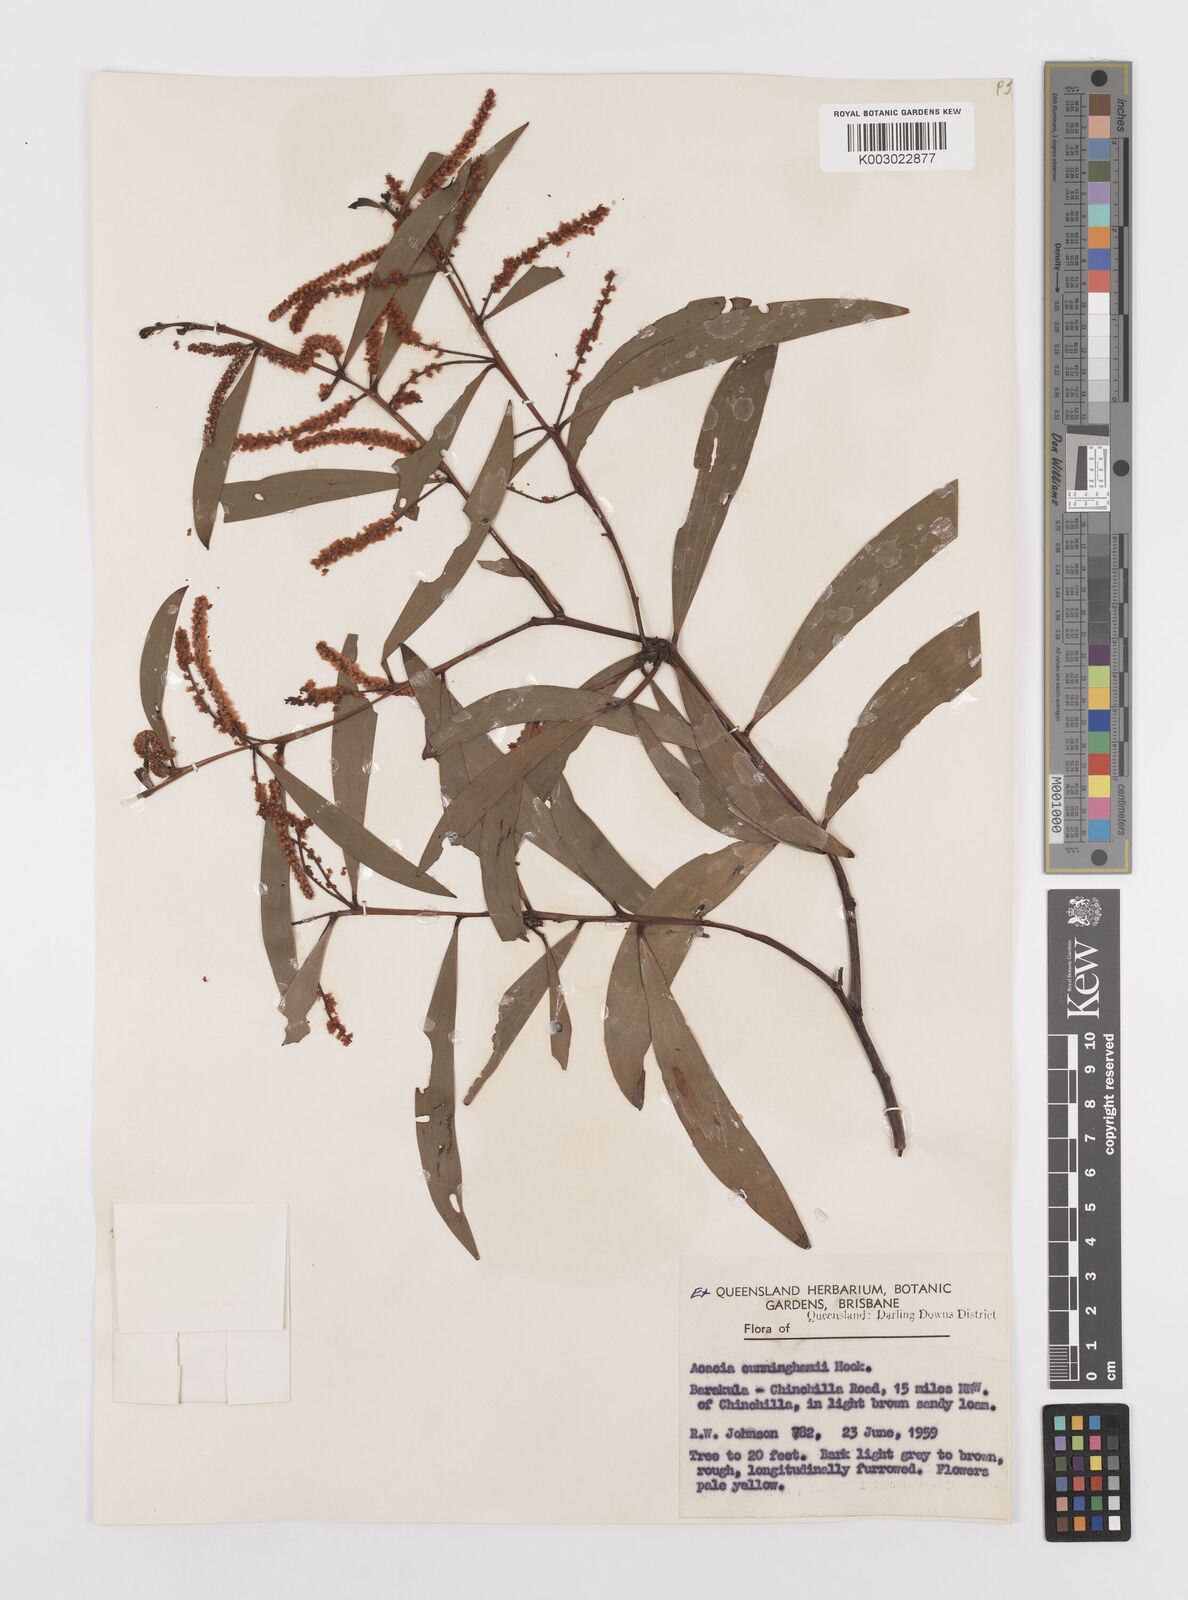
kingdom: Plantae
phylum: Tracheophyta
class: Magnoliopsida
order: Fabales
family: Fabaceae
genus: Acacia
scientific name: Acacia longispicata
